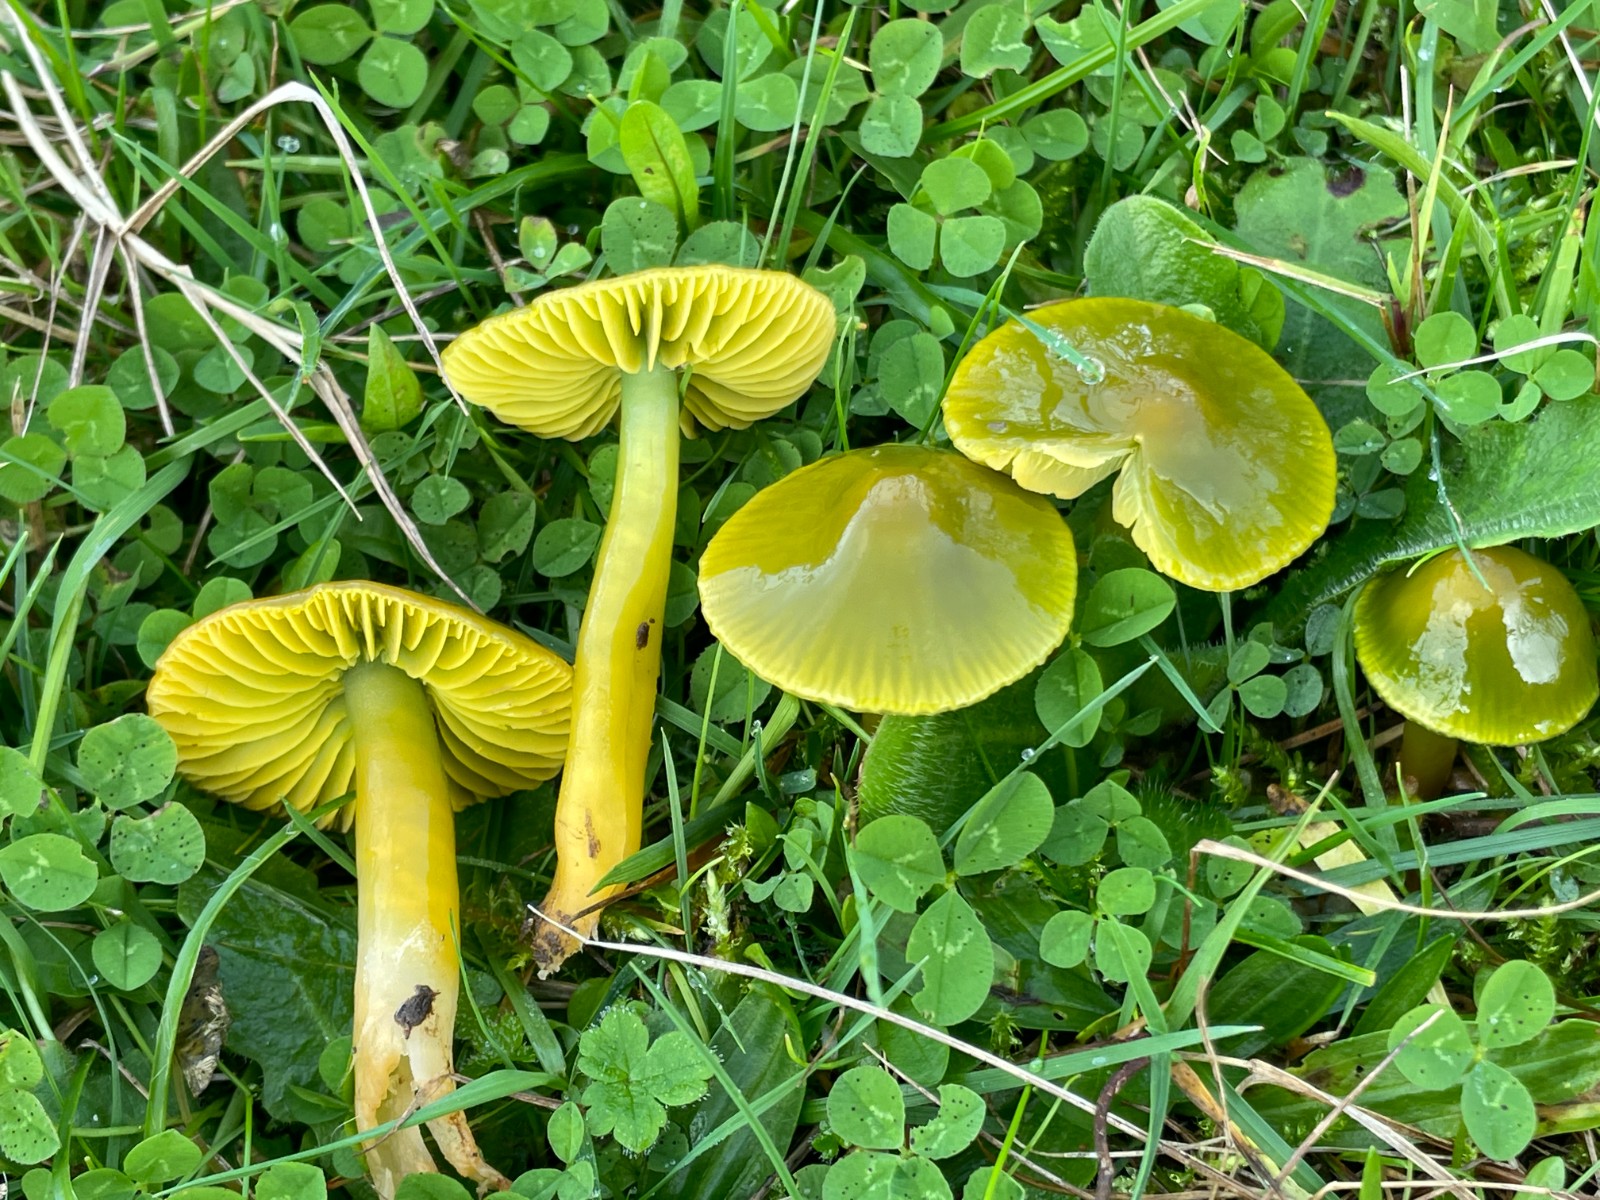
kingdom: Fungi
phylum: Basidiomycota
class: Agaricomycetes
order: Agaricales
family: Hygrophoraceae
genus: Gliophorus
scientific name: Gliophorus psittacinus
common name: papegøje-vokshat
